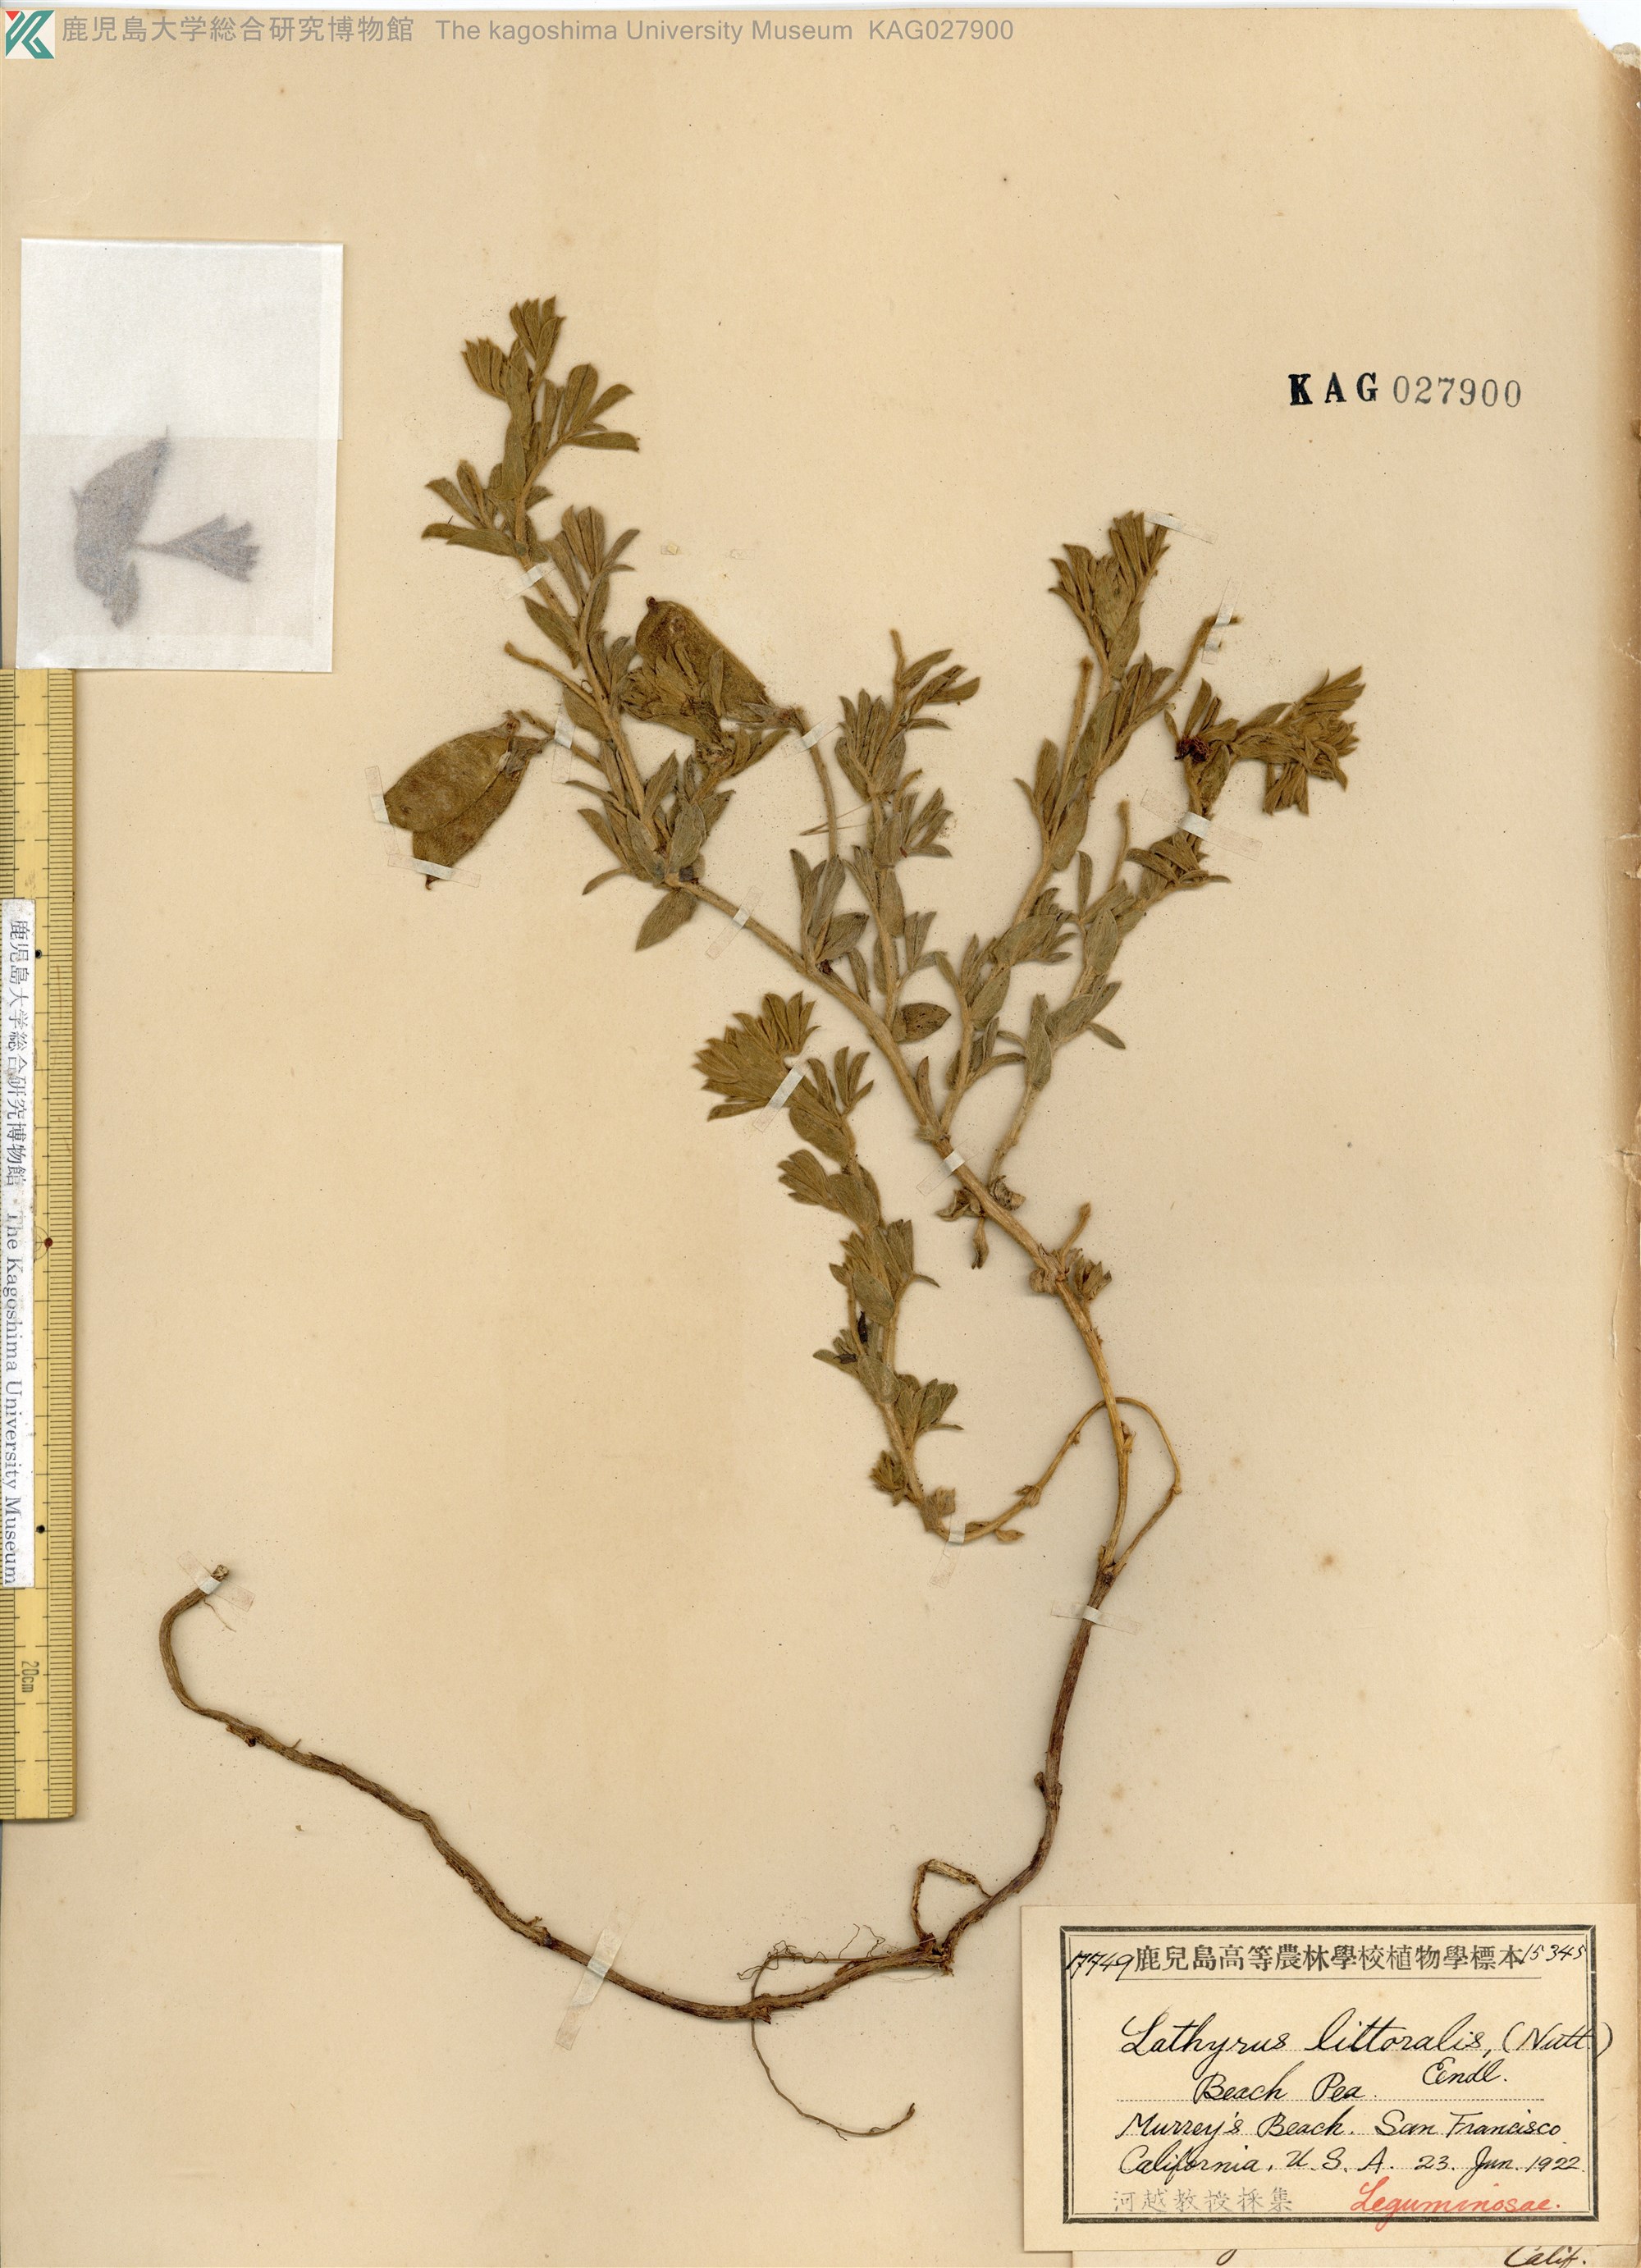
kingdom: Plantae
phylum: Tracheophyta
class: Magnoliopsida
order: Fabales
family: Fabaceae
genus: Lathyrus
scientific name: Lathyrus littoralis
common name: Dune sweet pea
